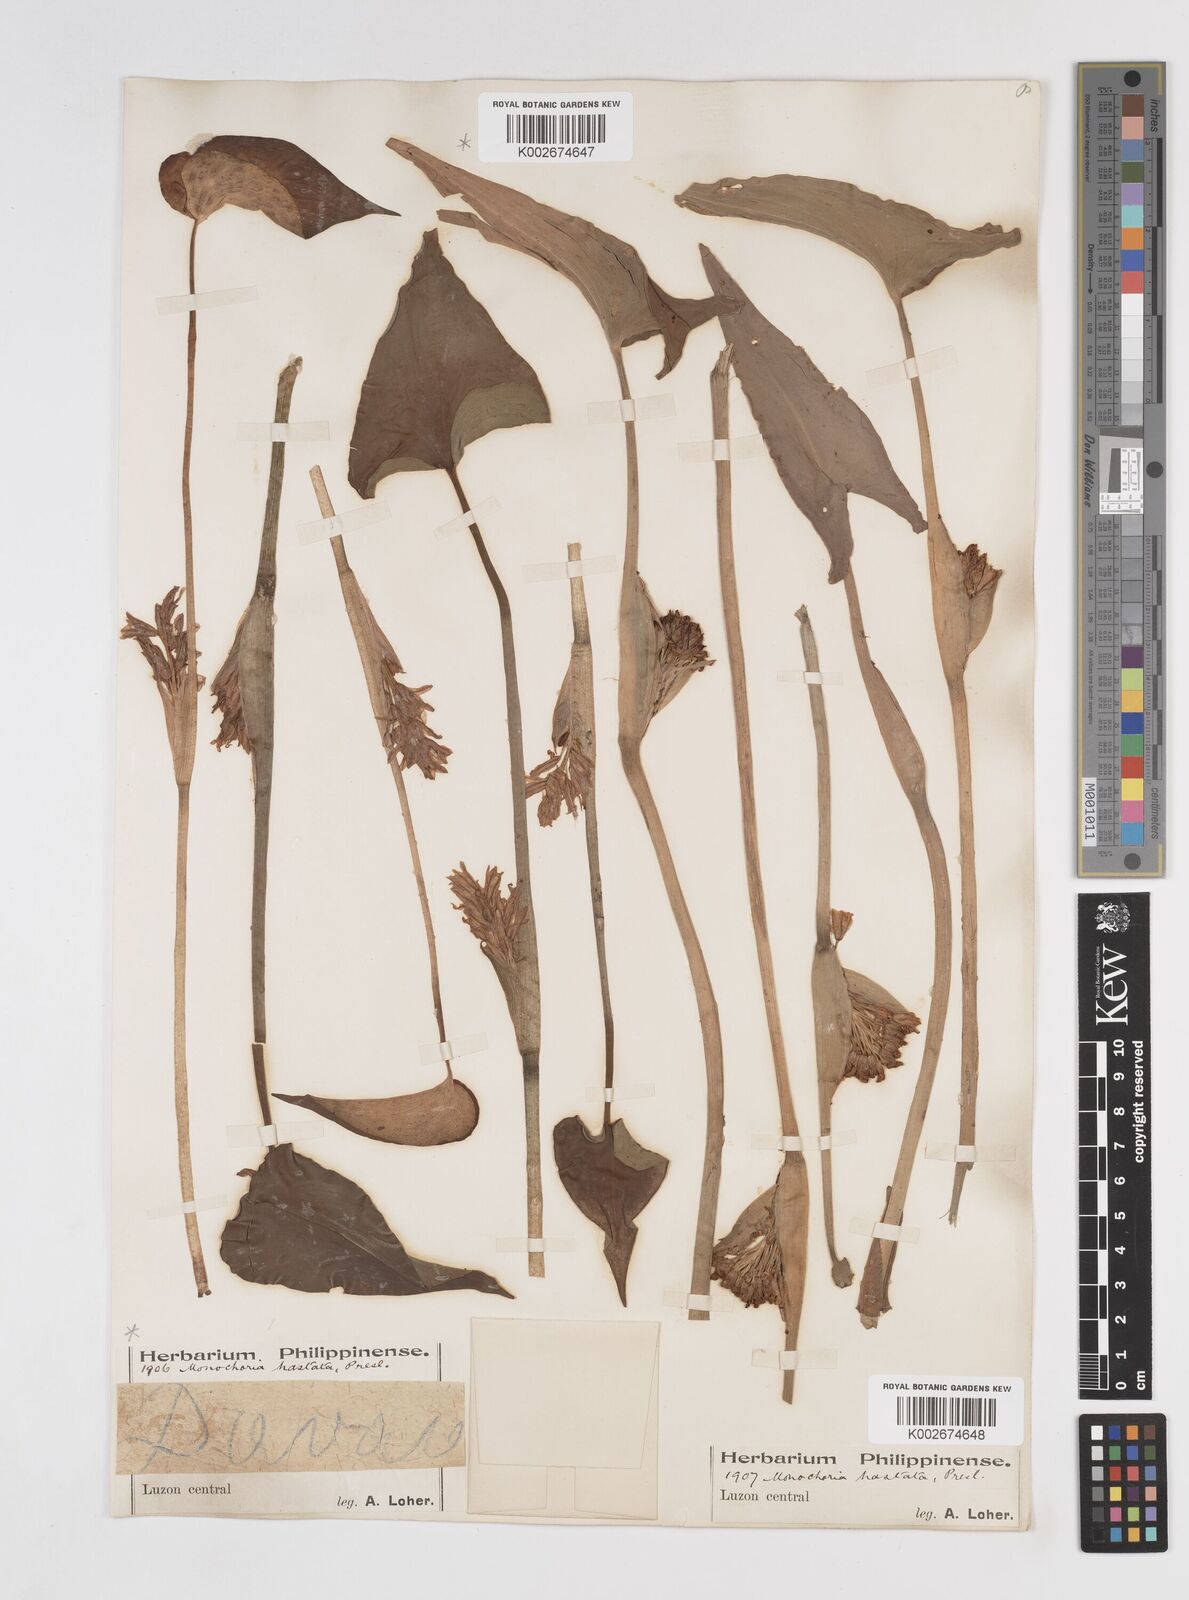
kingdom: Plantae
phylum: Tracheophyta
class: Liliopsida
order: Commelinales
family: Pontederiaceae
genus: Pontederia
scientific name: Pontederia hastata
